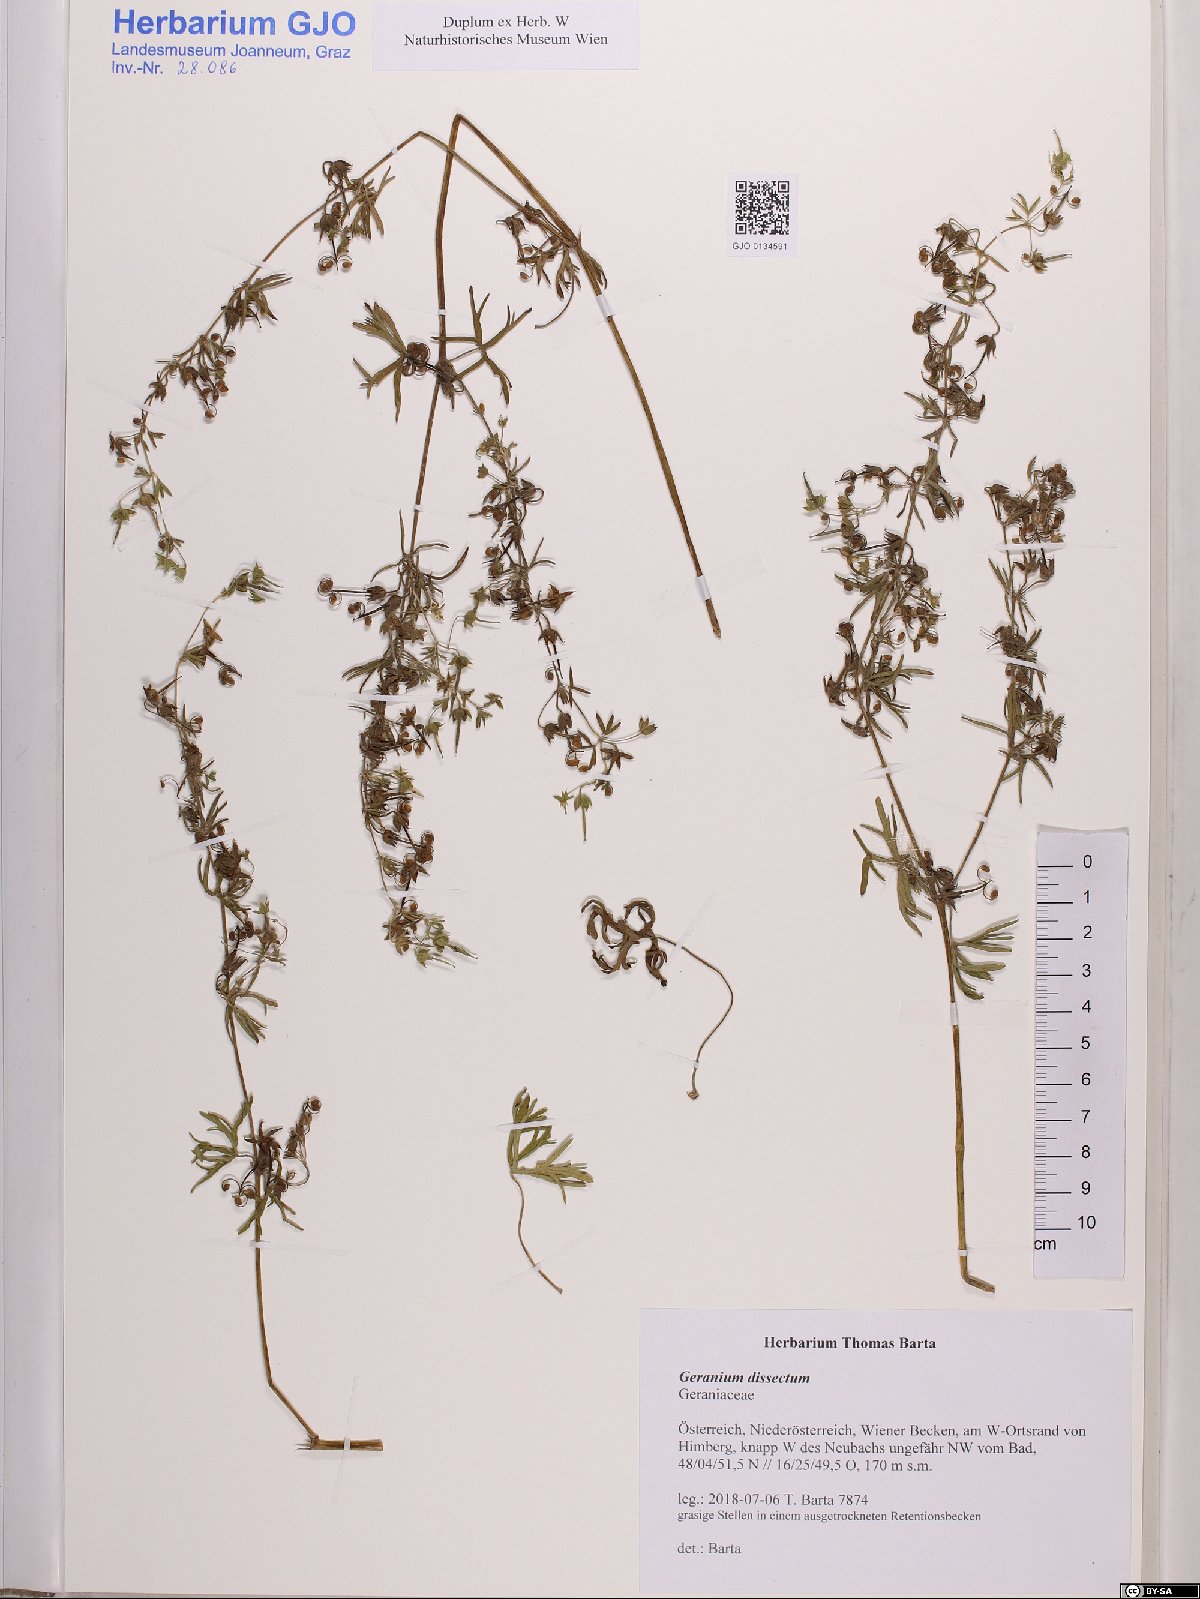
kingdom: Plantae
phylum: Tracheophyta
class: Magnoliopsida
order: Geraniales
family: Geraniaceae
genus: Geranium
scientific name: Geranium dissectum
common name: Cut-leaved crane's-bill
